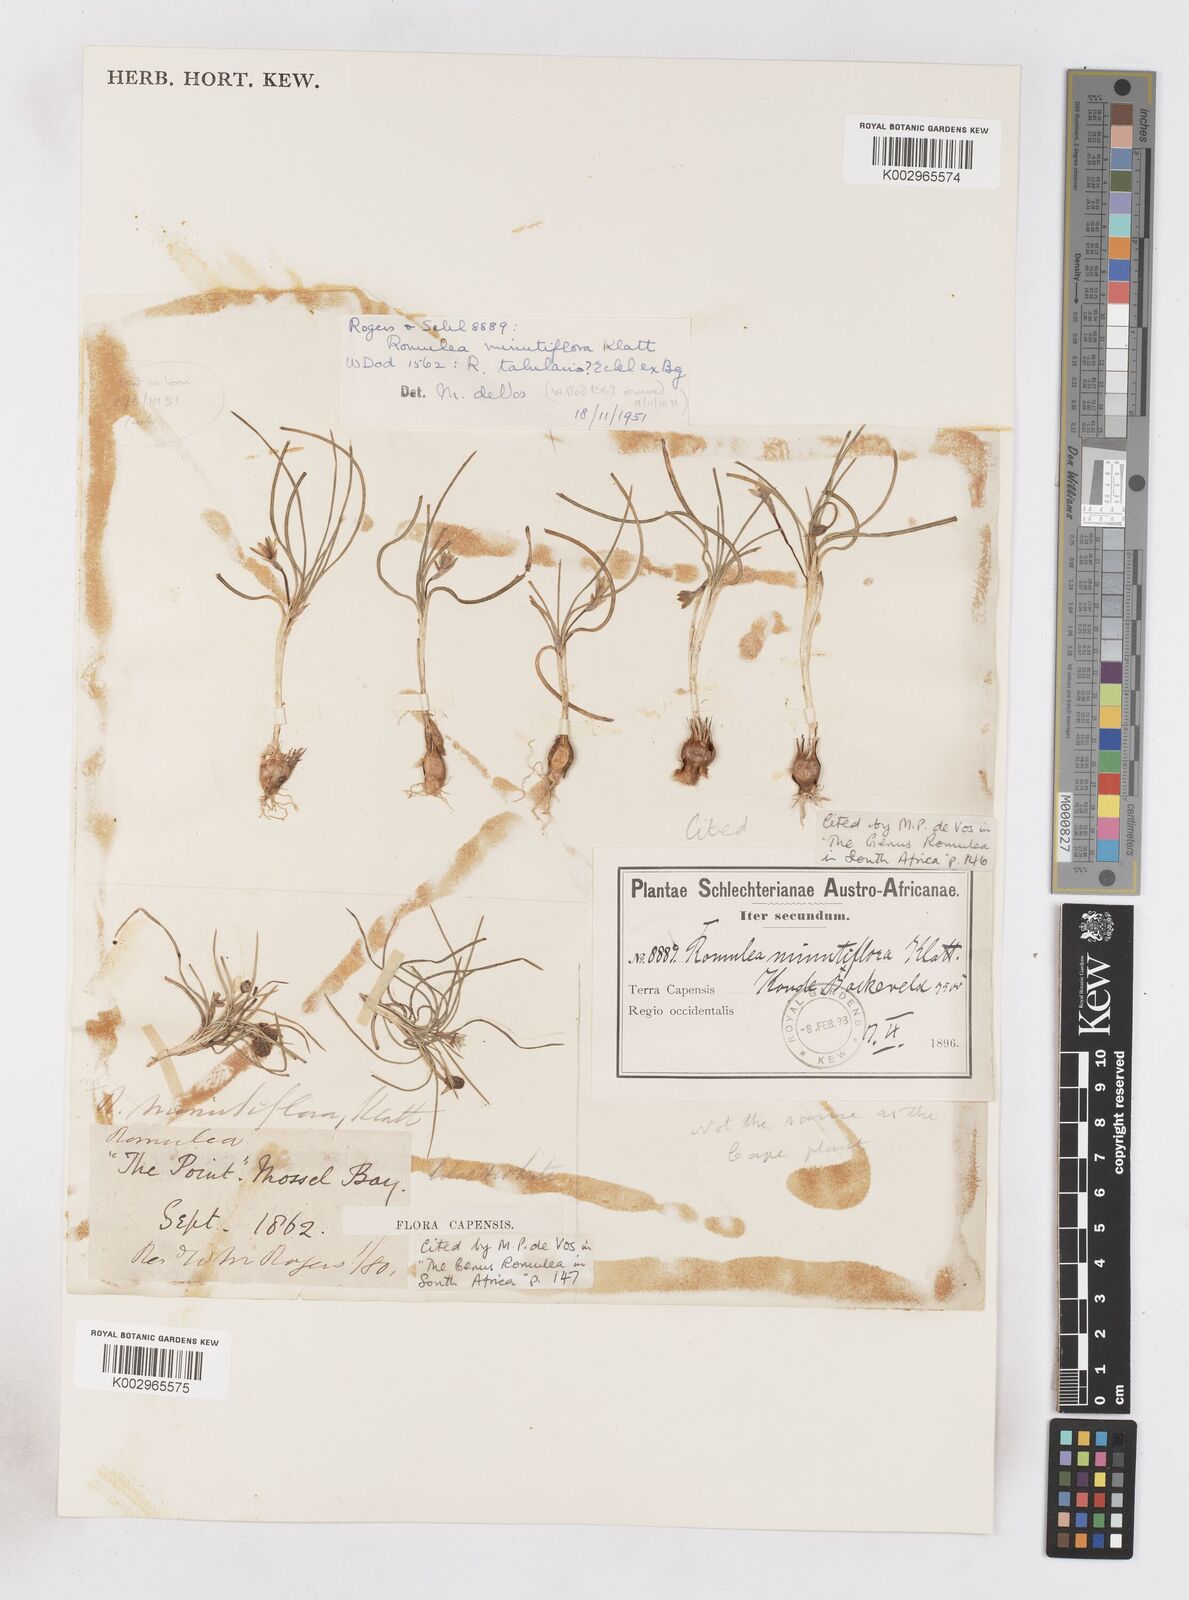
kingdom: Plantae
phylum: Tracheophyta
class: Liliopsida
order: Asparagales
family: Iridaceae
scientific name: Iridaceae
